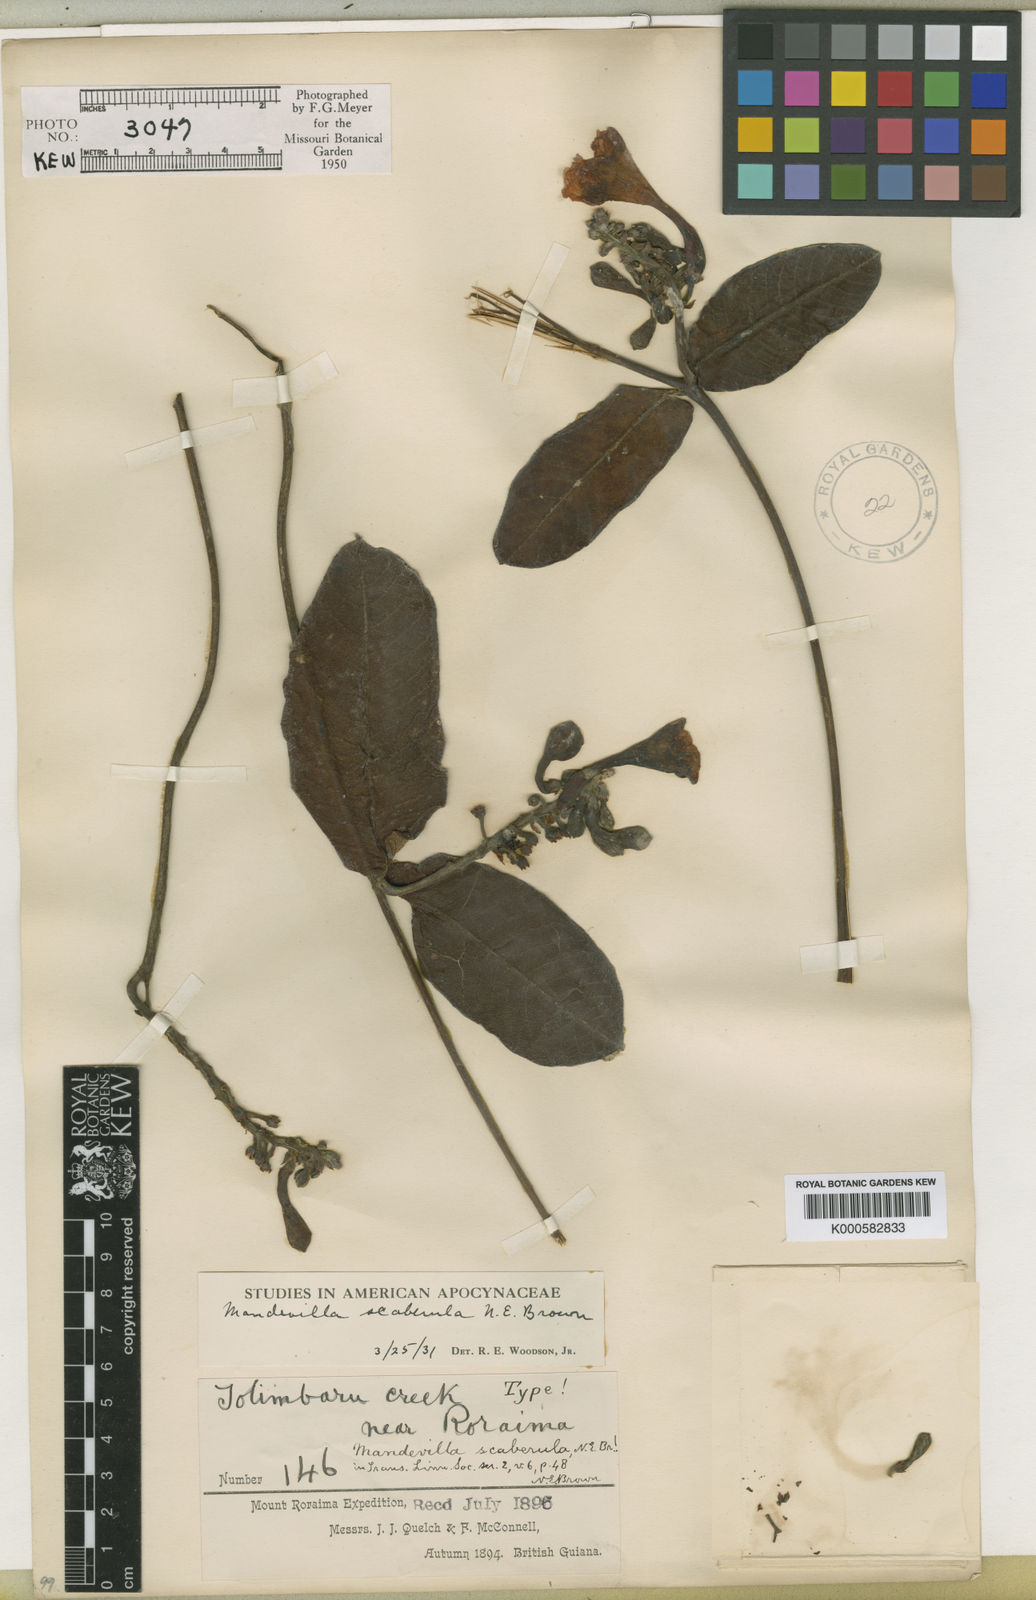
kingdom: Plantae
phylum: Tracheophyta
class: Magnoliopsida
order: Gentianales
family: Apocynaceae
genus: Mandevilla
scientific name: Mandevilla scaberula
